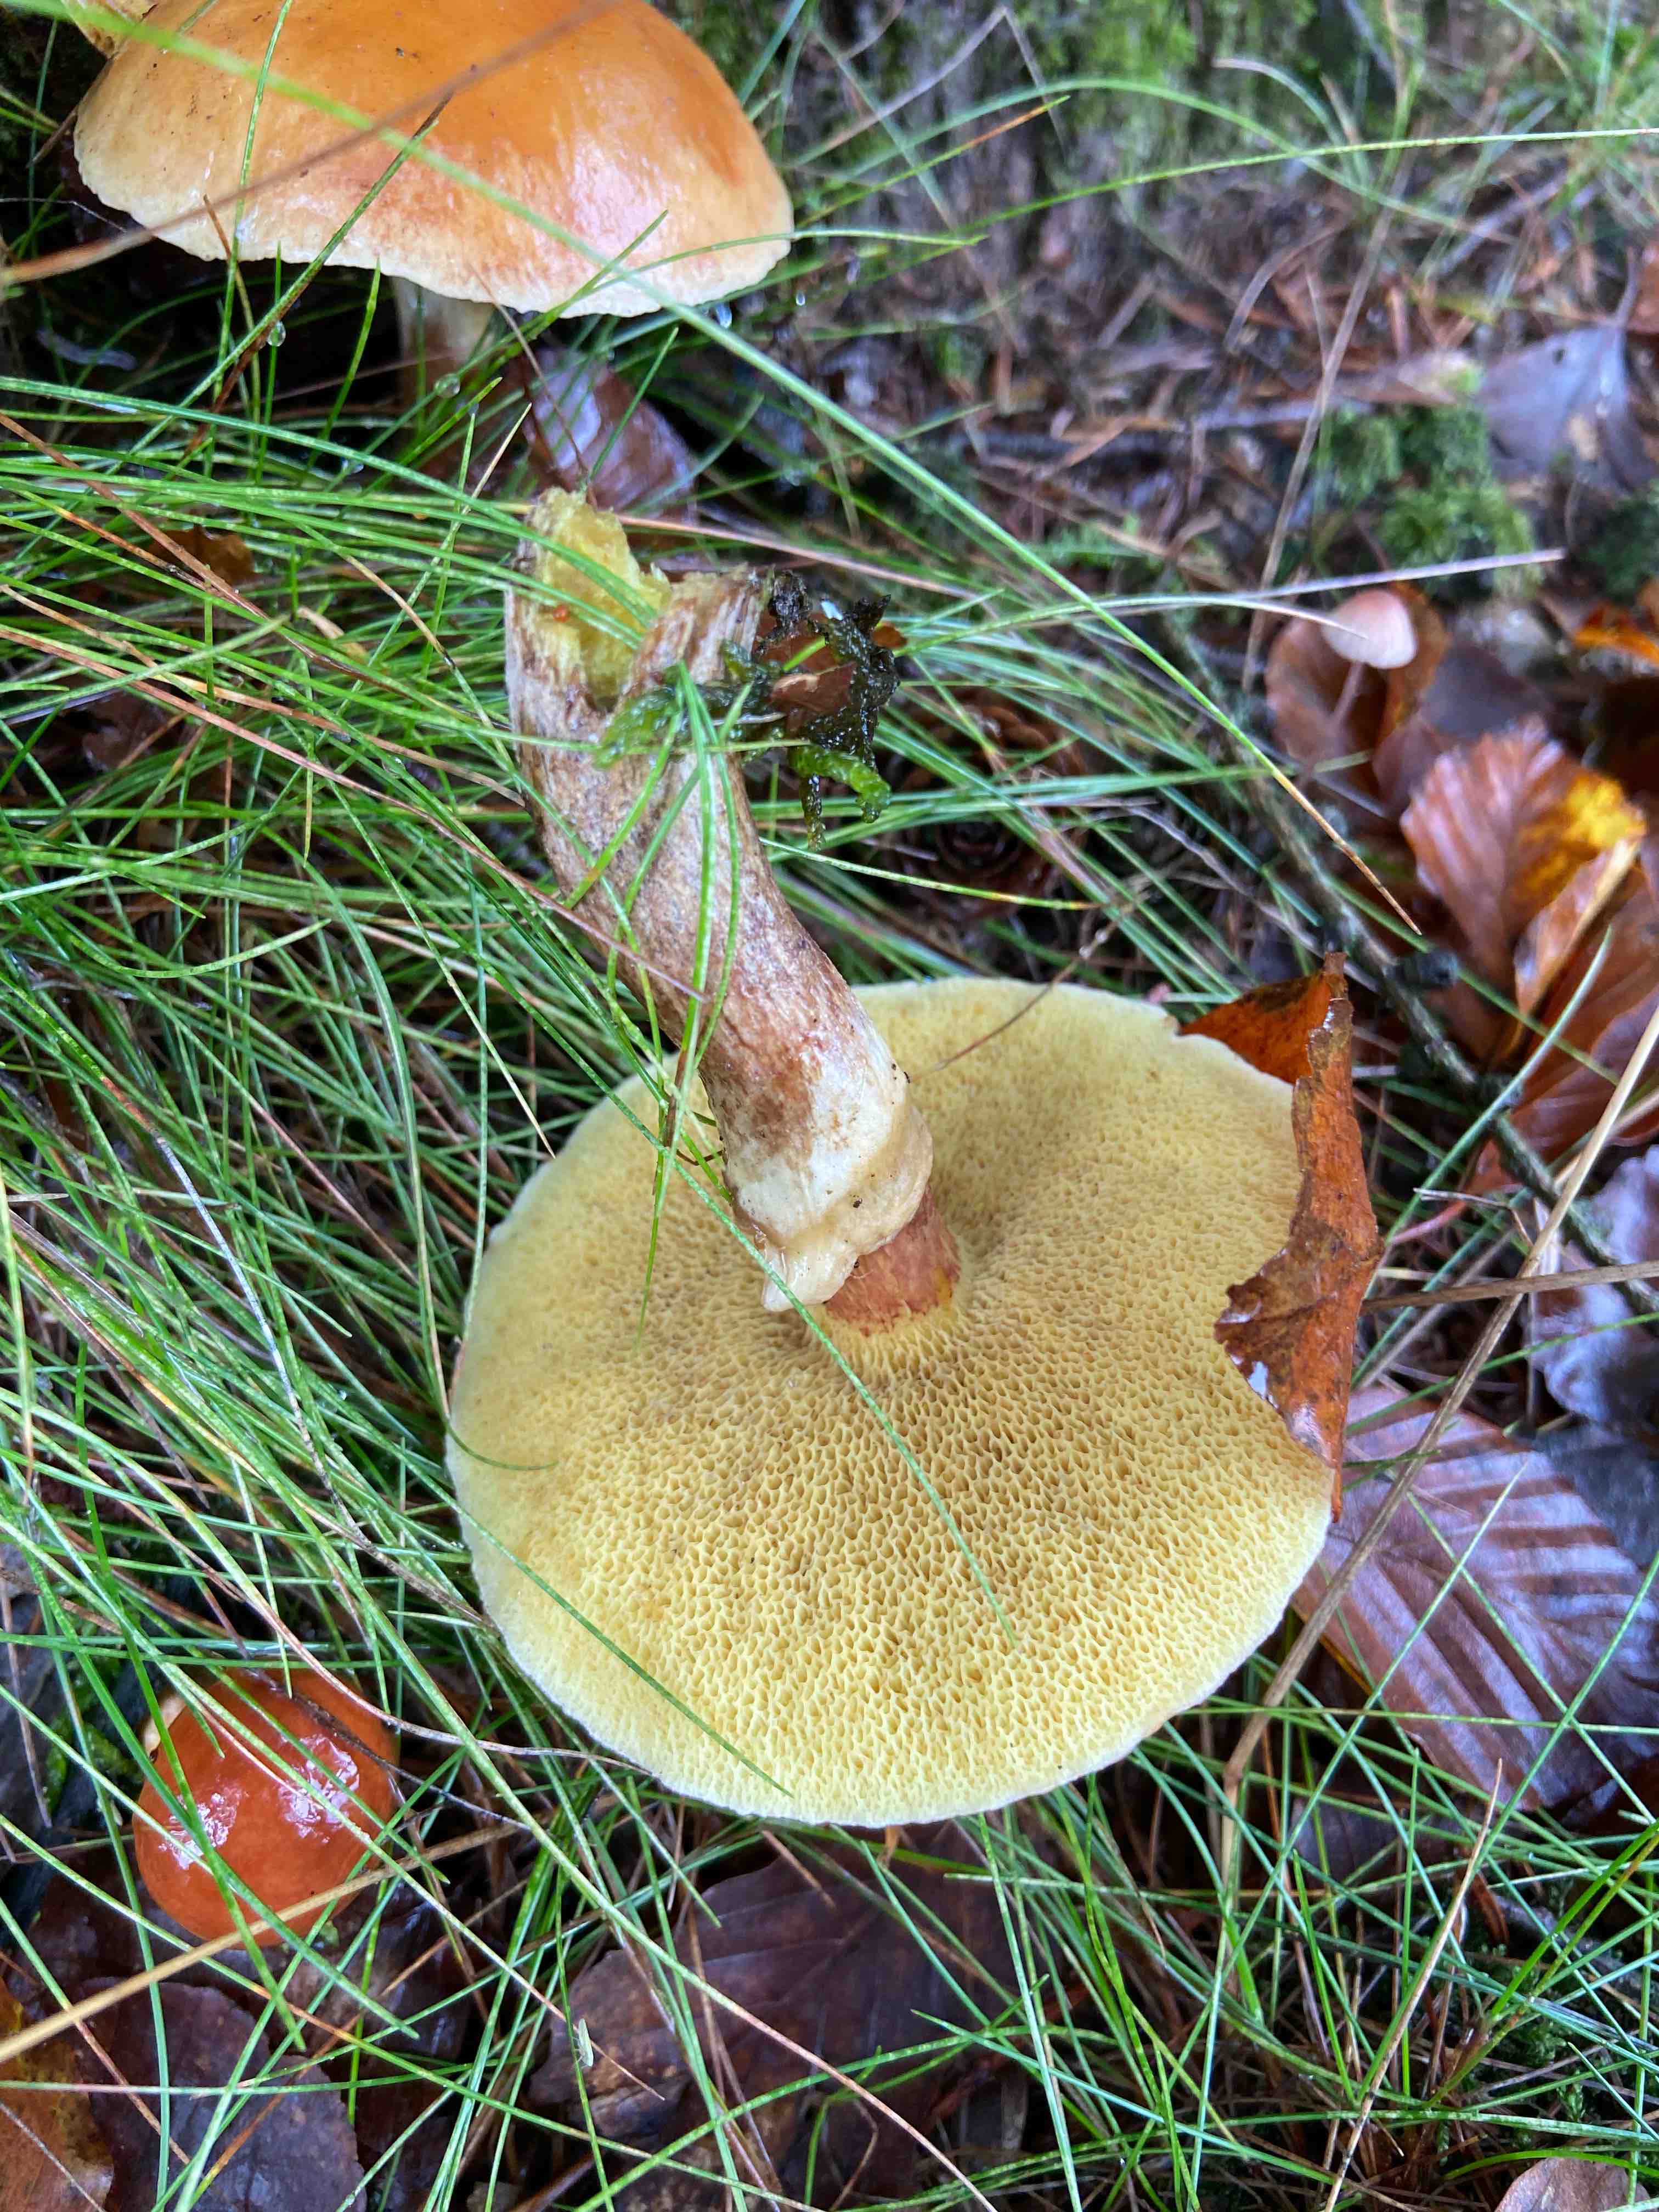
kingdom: Fungi
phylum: Basidiomycota
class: Agaricomycetes
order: Boletales
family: Suillaceae
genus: Suillus
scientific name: Suillus grevillei
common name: lærke-slimrørhat
